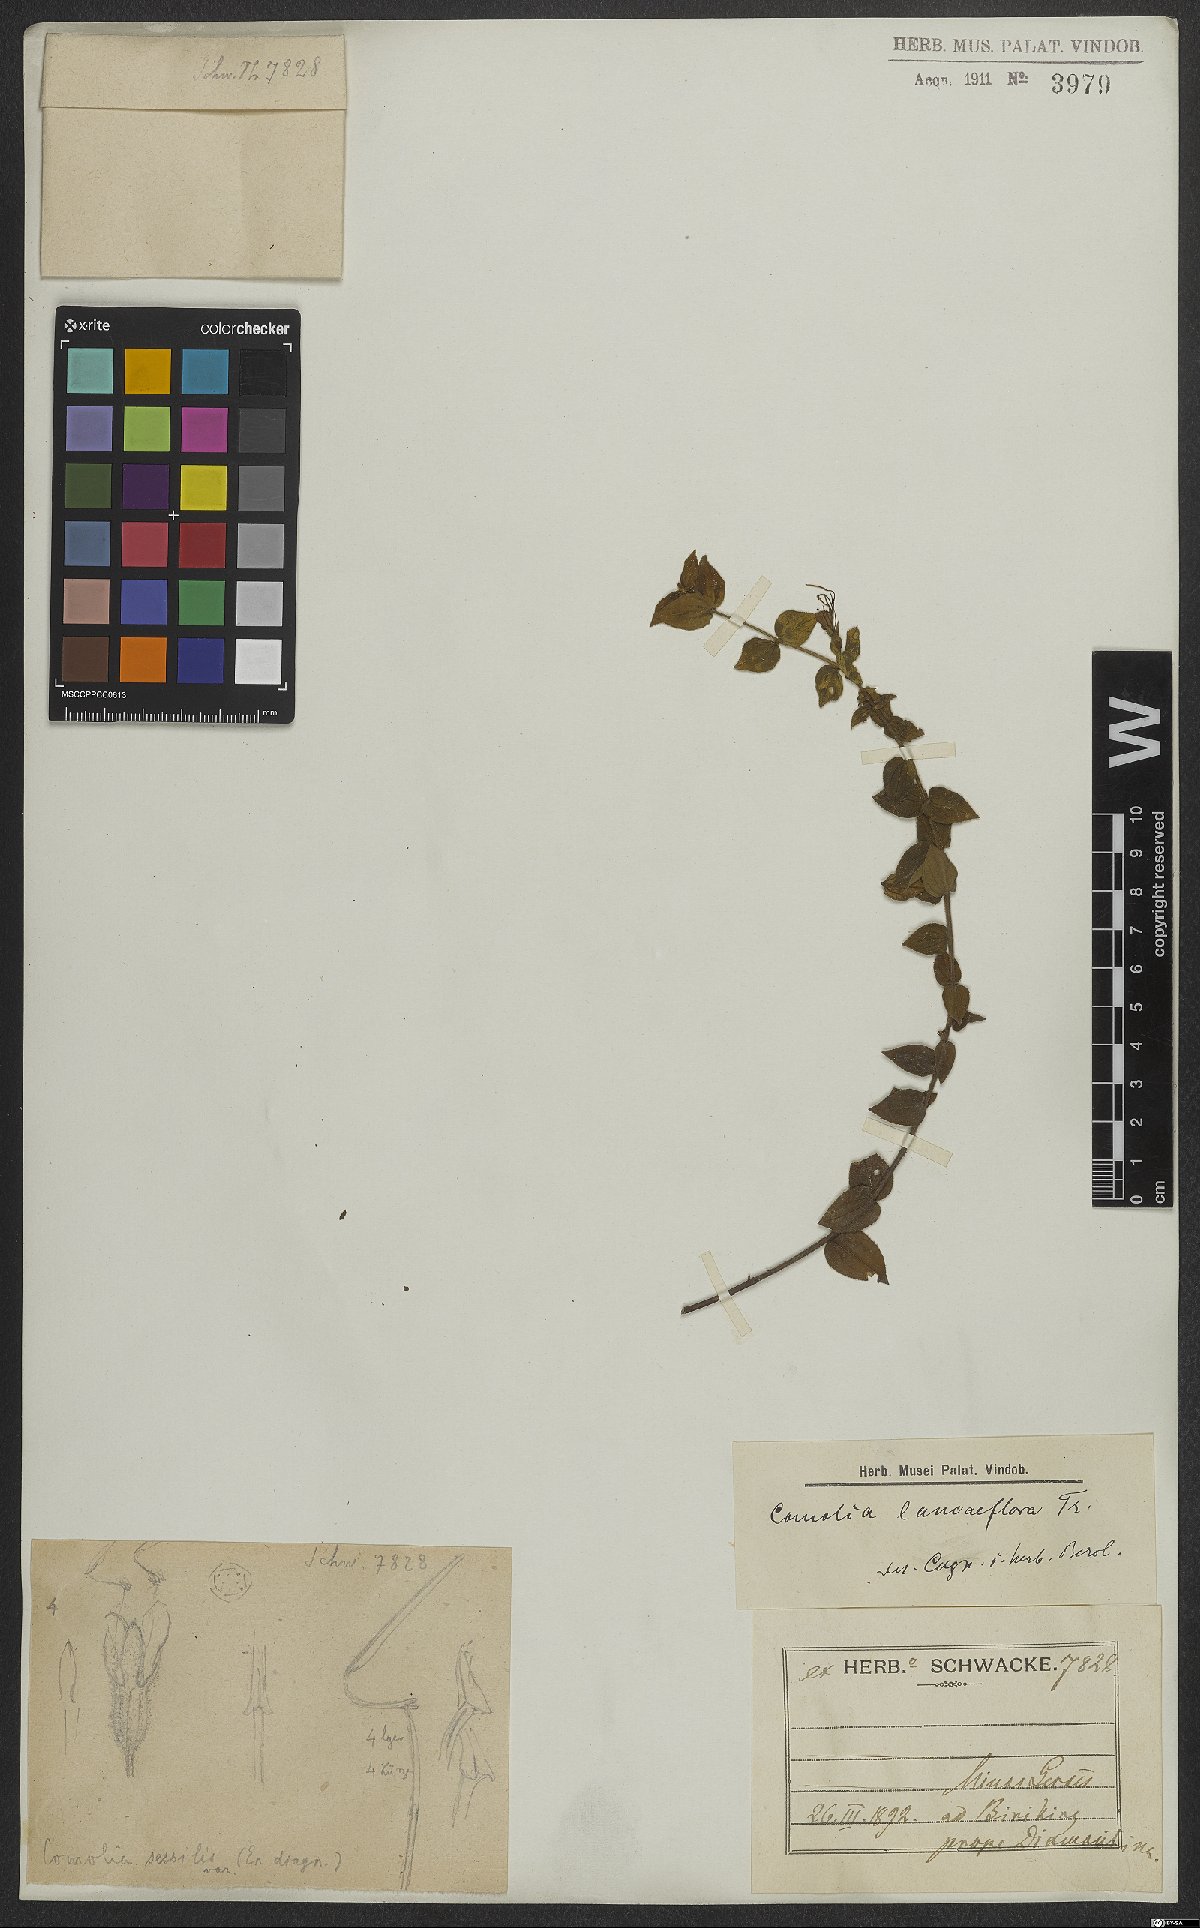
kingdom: Plantae
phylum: Tracheophyta
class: Magnoliopsida
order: Myrtales
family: Melastomataceae
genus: Fritzschia
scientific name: Fritzschia lanceiflora
